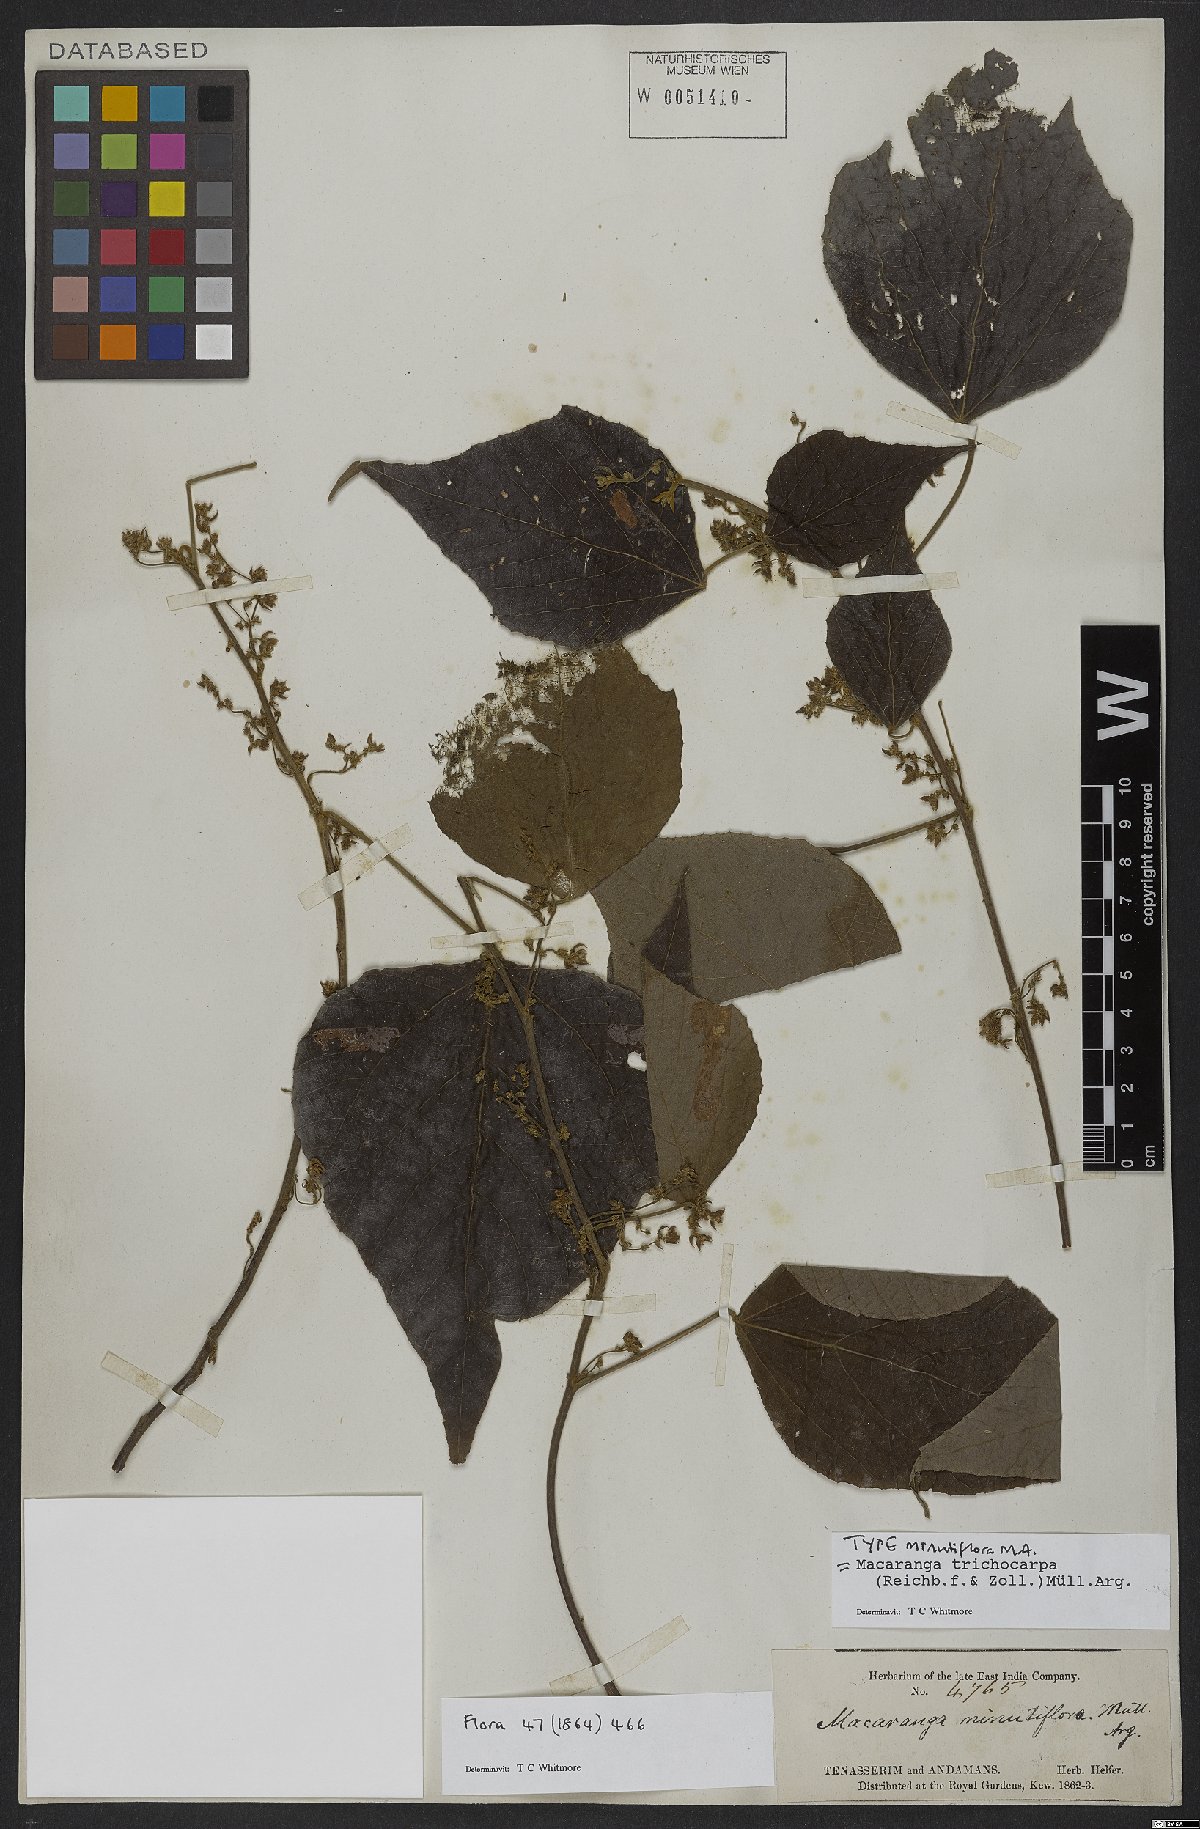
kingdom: Plantae
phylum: Tracheophyta
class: Magnoliopsida
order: Malpighiales
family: Euphorbiaceae
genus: Macaranga
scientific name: Macaranga trichocarpa
